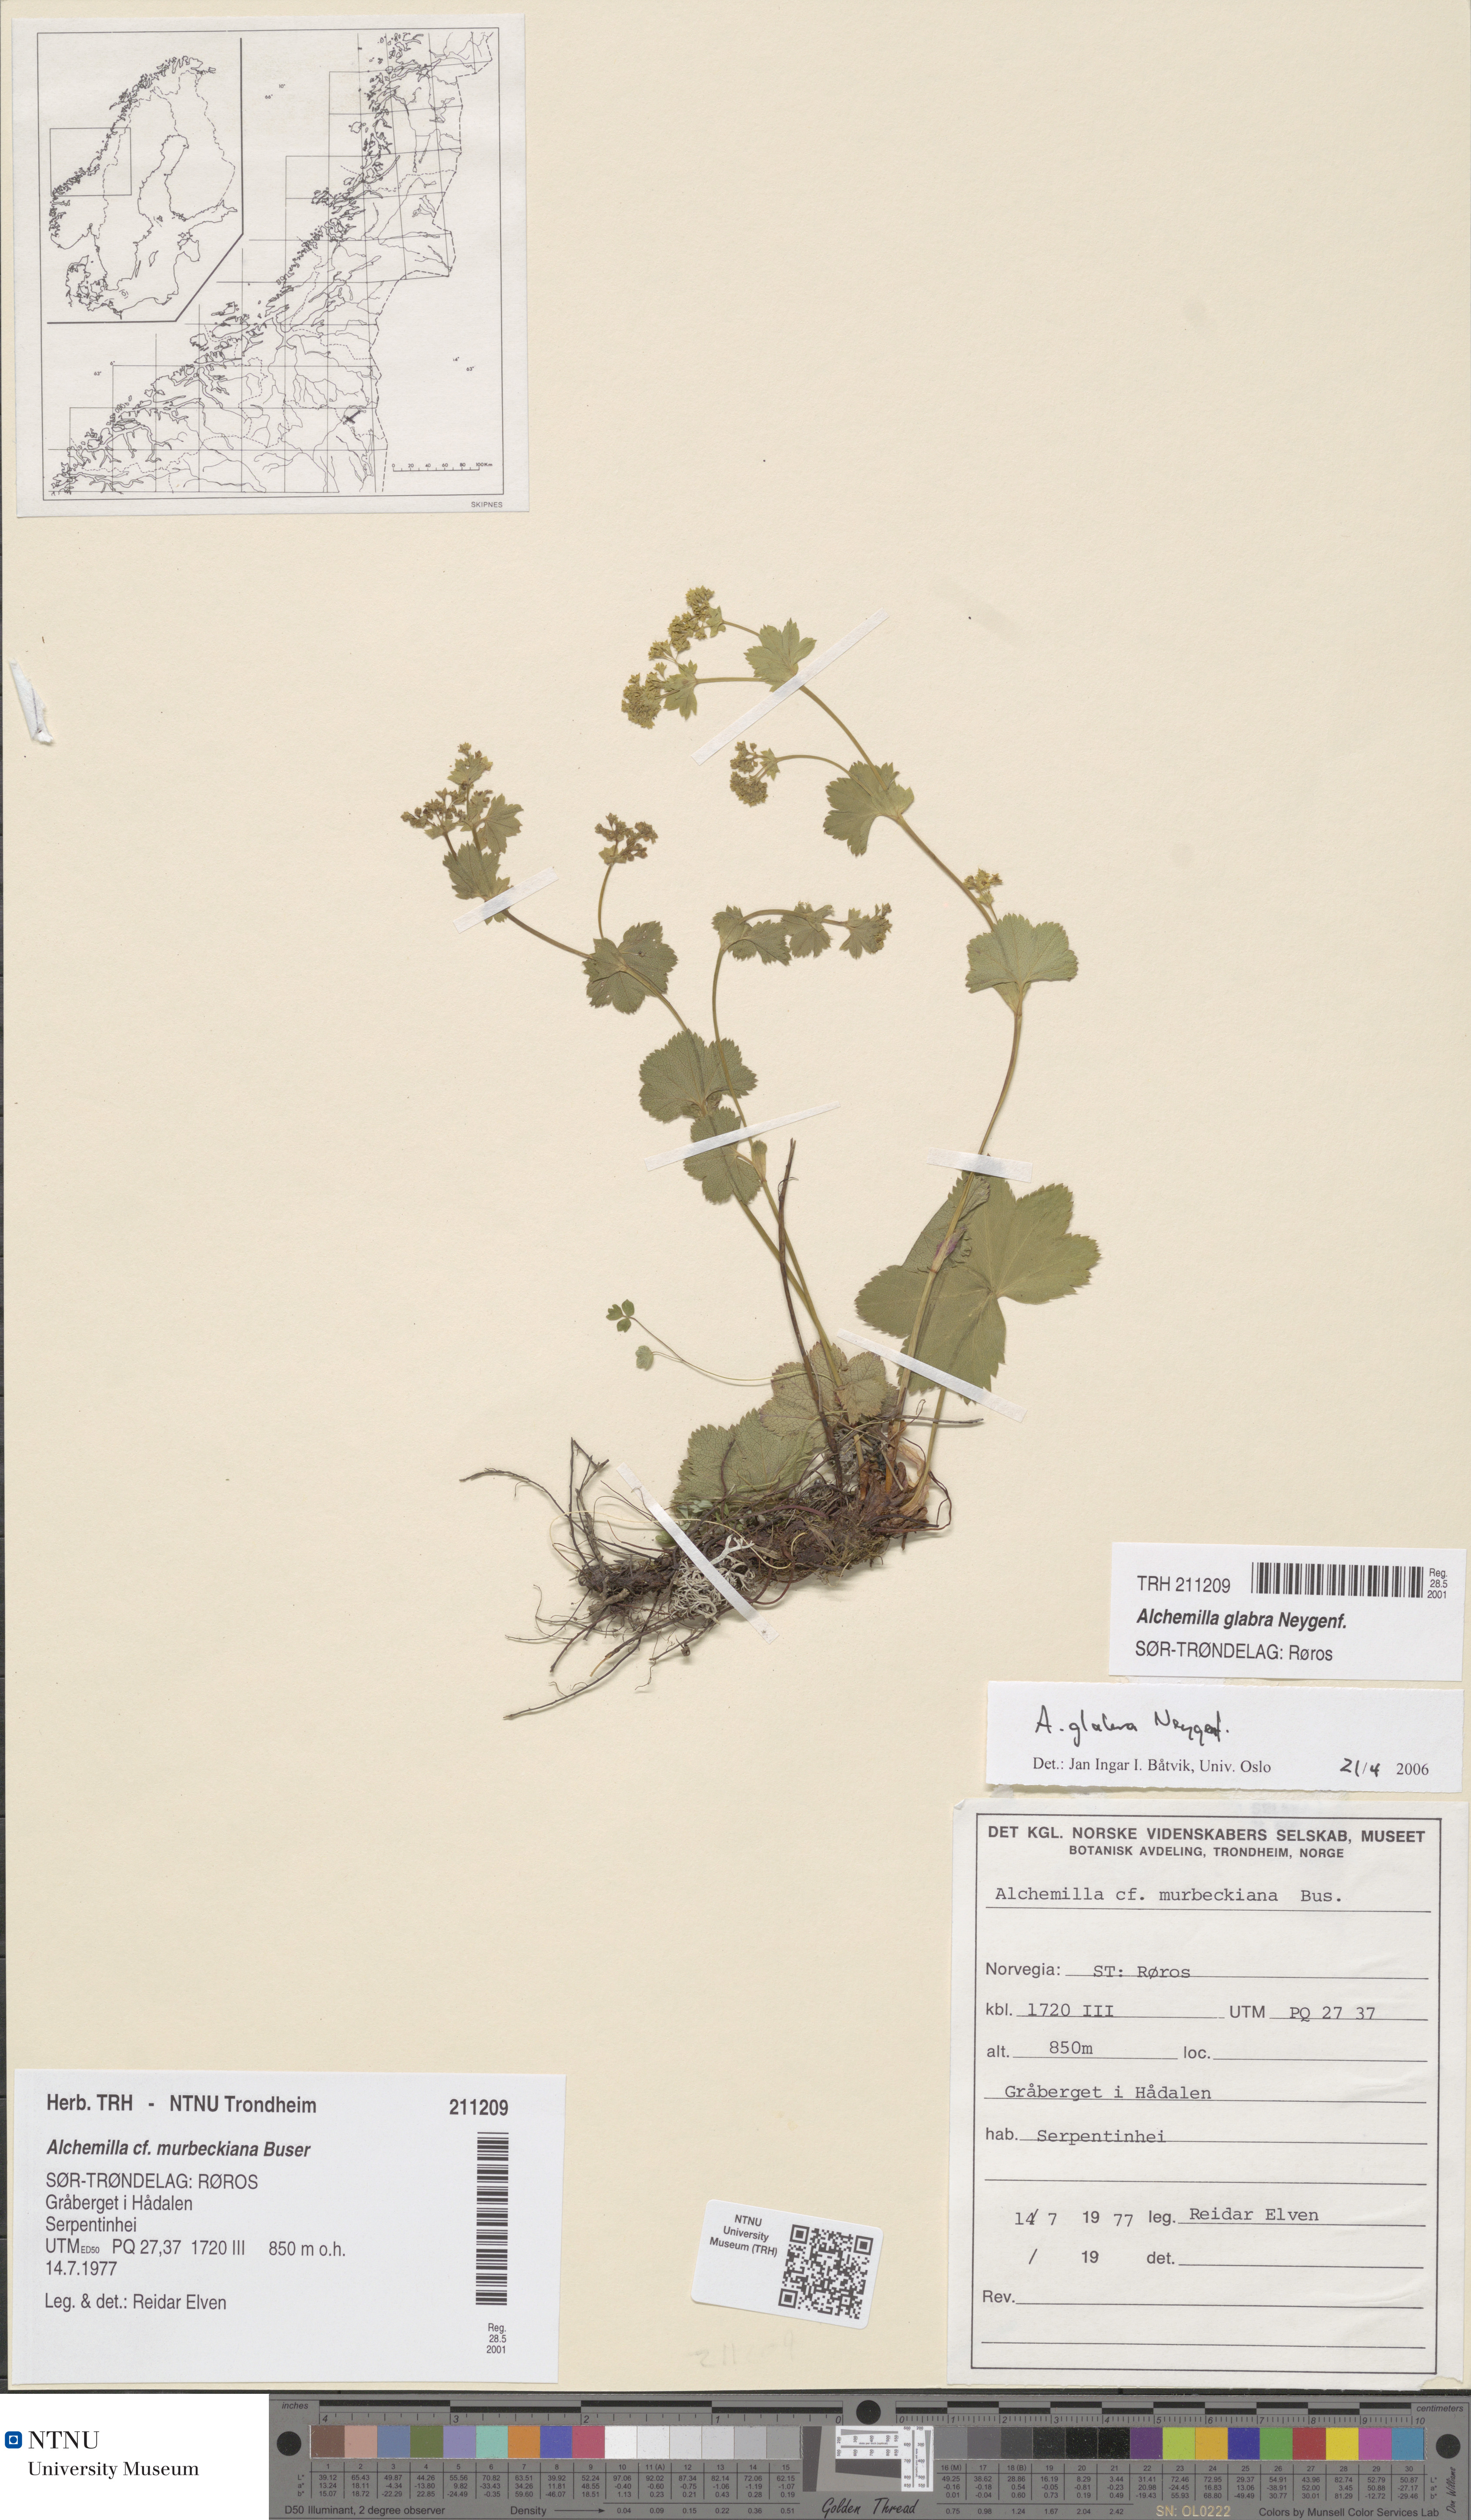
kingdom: Plantae
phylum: Tracheophyta
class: Magnoliopsida
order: Rosales
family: Rosaceae
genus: Alchemilla
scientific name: Alchemilla glabra
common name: Smooth lady's-mantle
